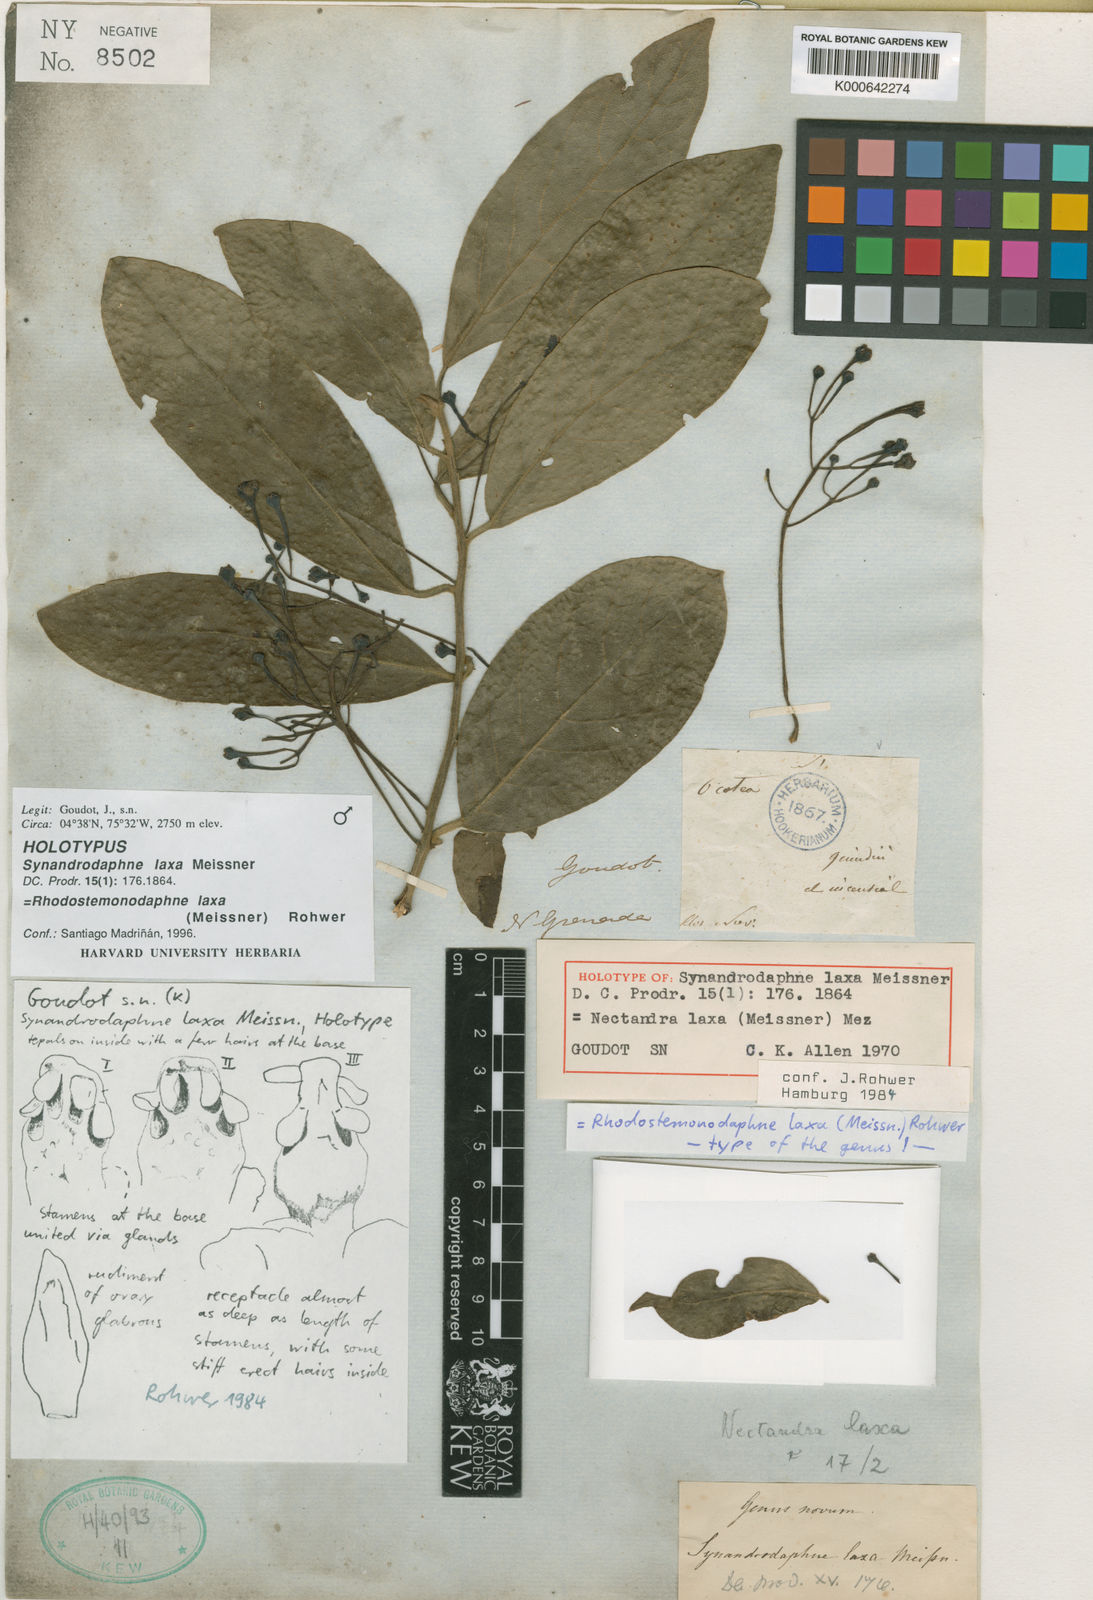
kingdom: Plantae
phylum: Tracheophyta
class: Magnoliopsida
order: Laurales
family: Lauraceae
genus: Rhodostemonodaphne
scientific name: Rhodostemonodaphne laxa
